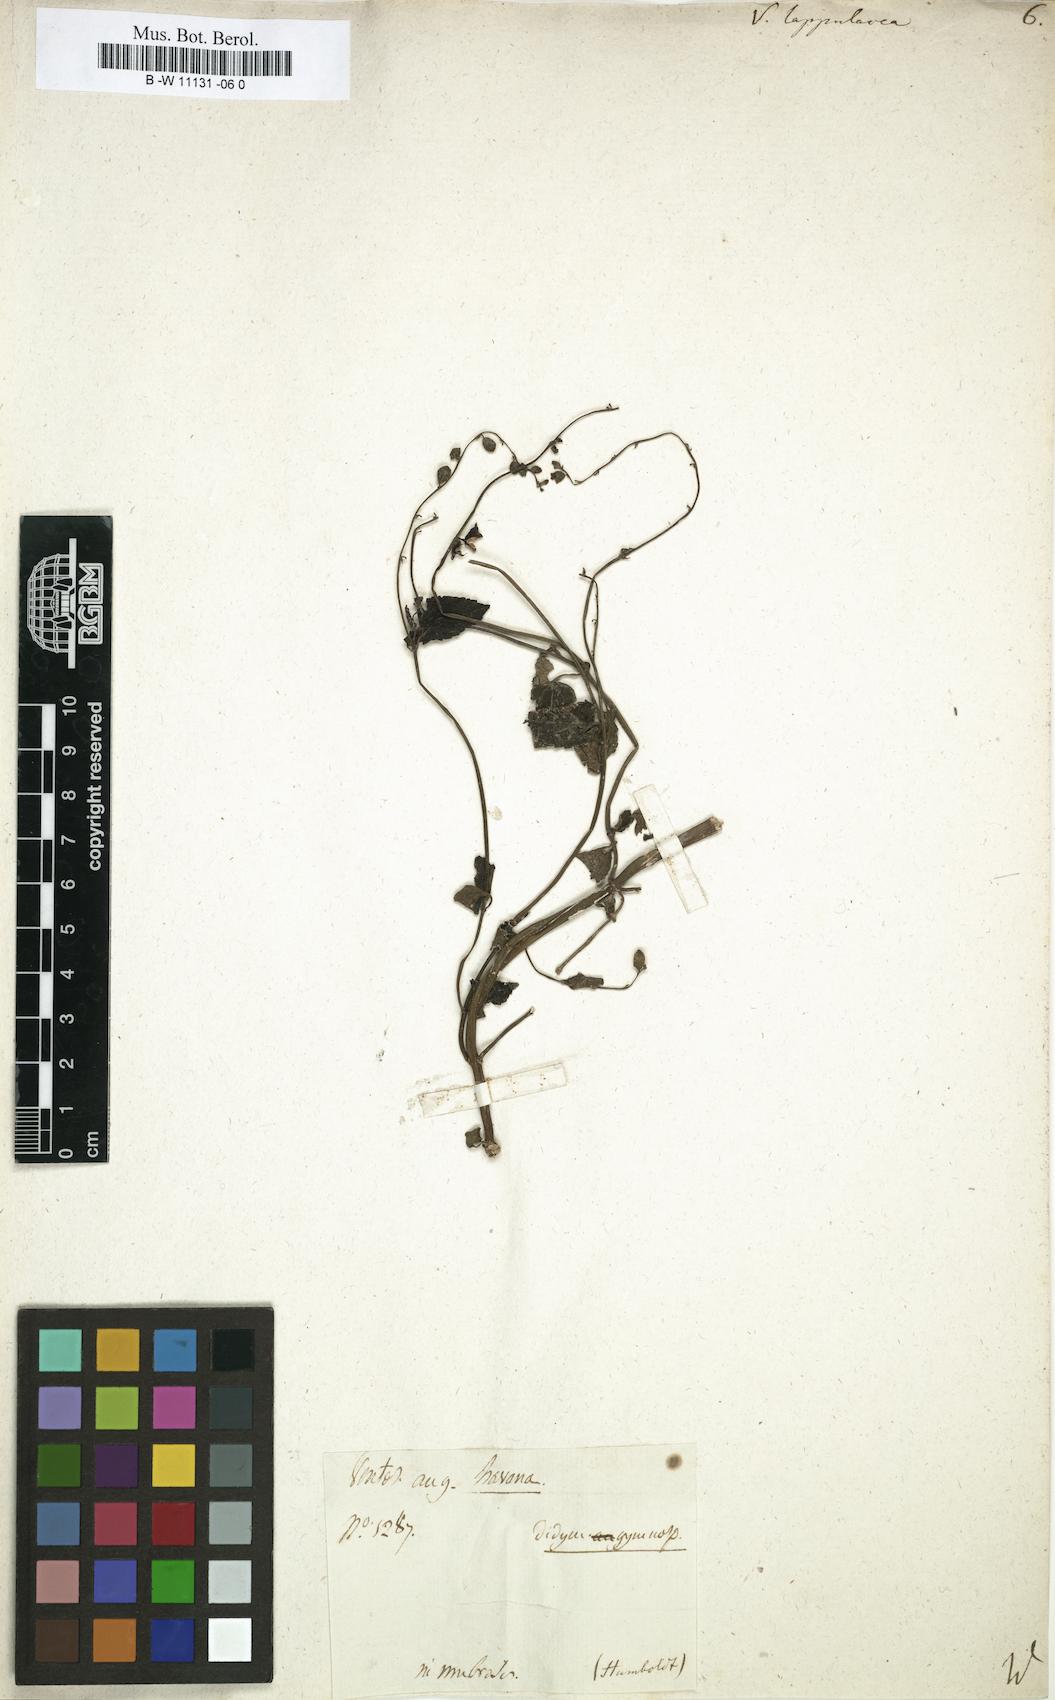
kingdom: Plantae
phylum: Tracheophyta
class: Magnoliopsida
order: Lamiales
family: Verbenaceae
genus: Priva
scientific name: Priva lappulacea
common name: Fasten-'pon-coat
